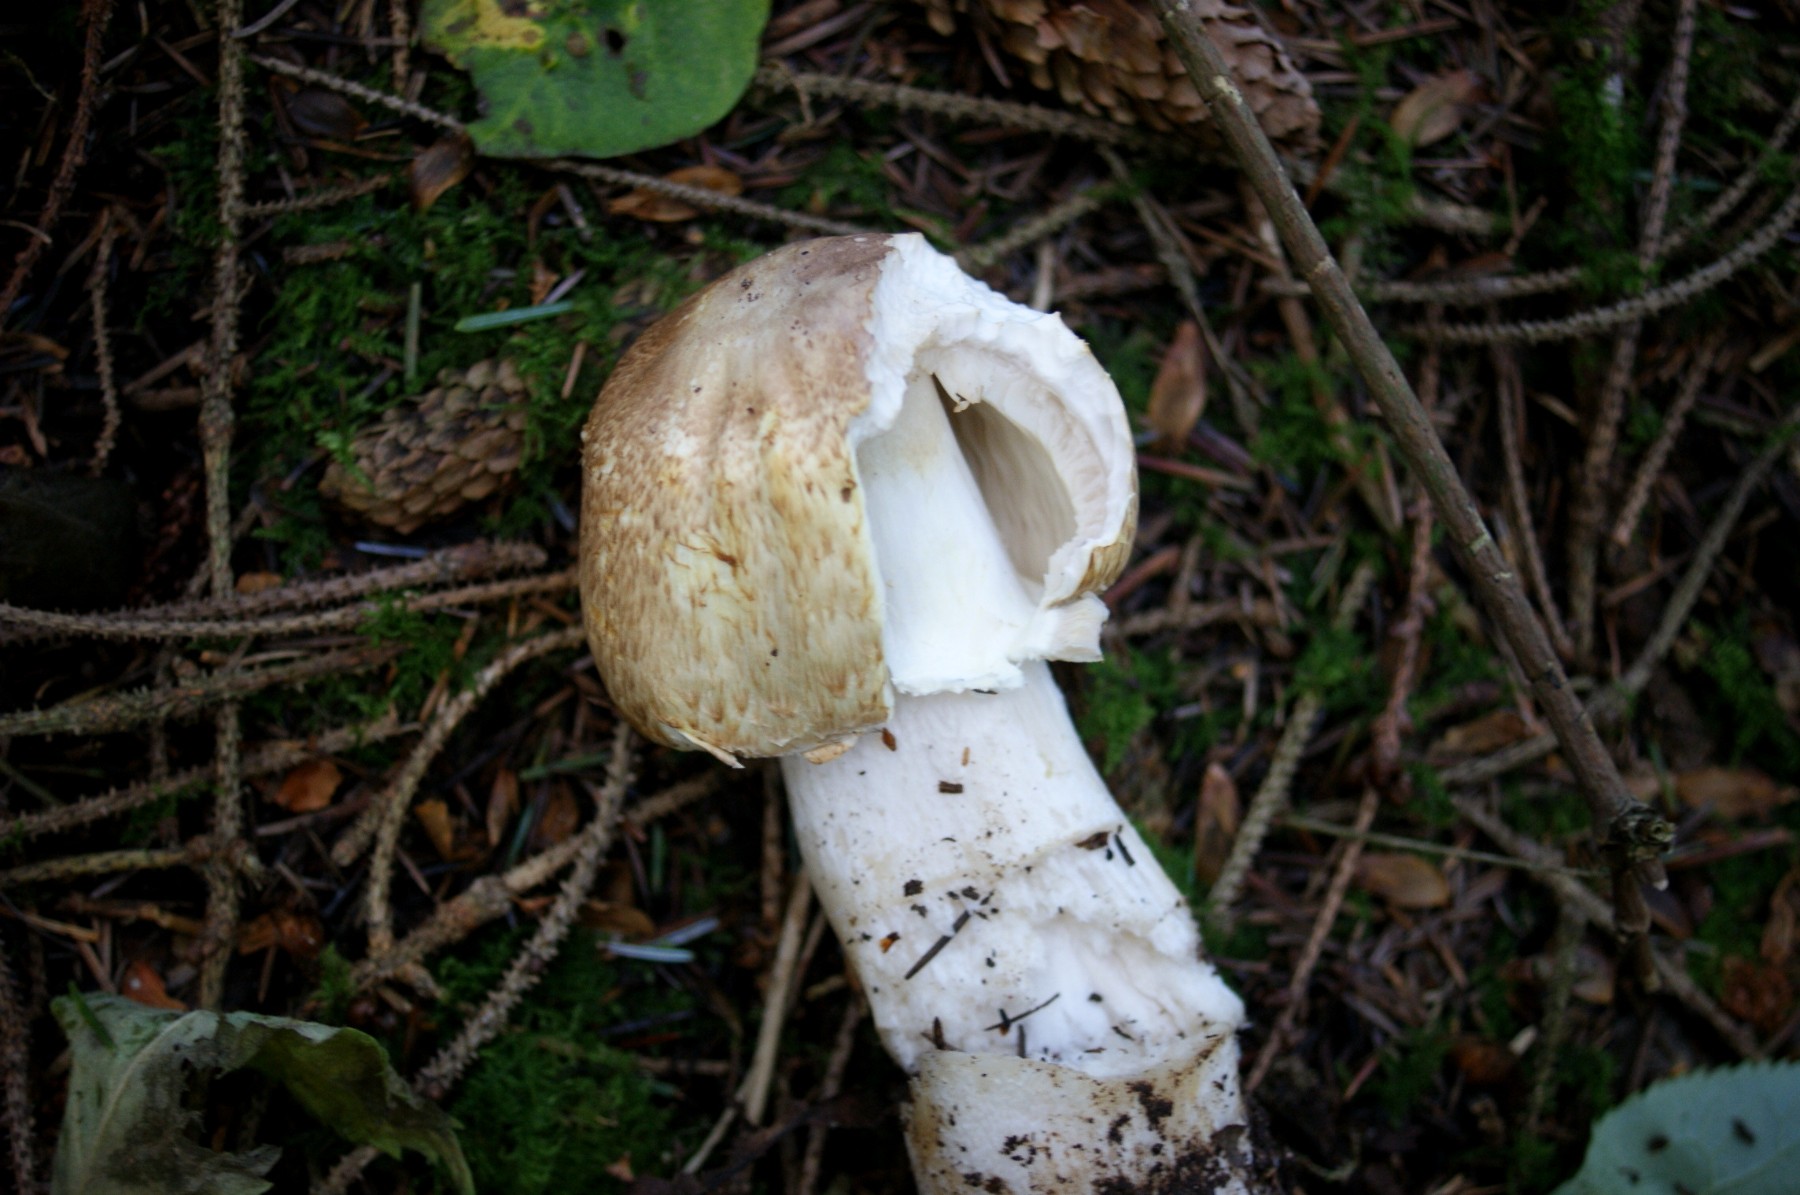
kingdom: Fungi
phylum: Basidiomycota
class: Agaricomycetes
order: Agaricales
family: Agaricaceae
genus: Agaricus
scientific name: Agaricus augustus
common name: prægtig champignon
